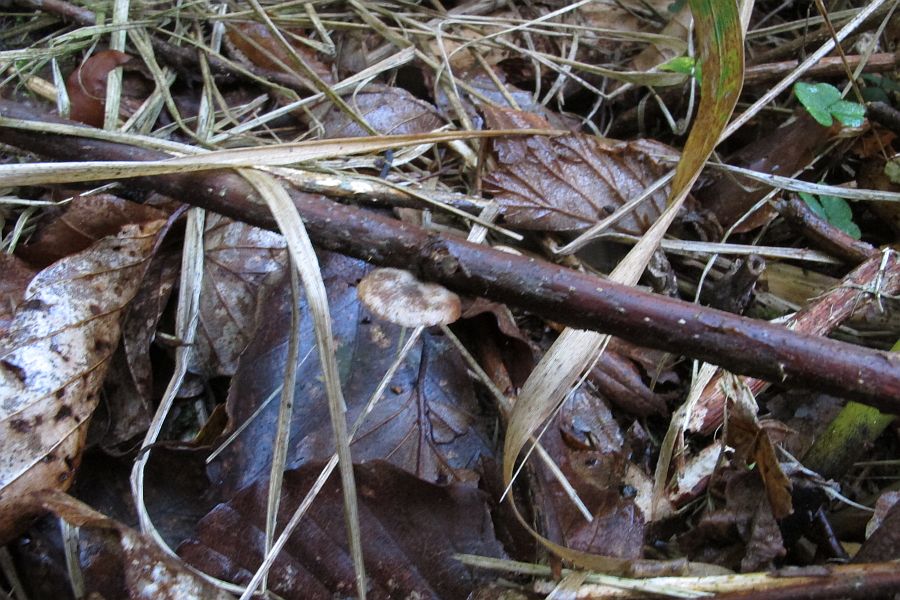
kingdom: Fungi
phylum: Basidiomycota
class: Agaricomycetes
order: Agaricales
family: Strophariaceae
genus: Deconica
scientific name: Deconica horizontalis
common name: ved-stråhat
